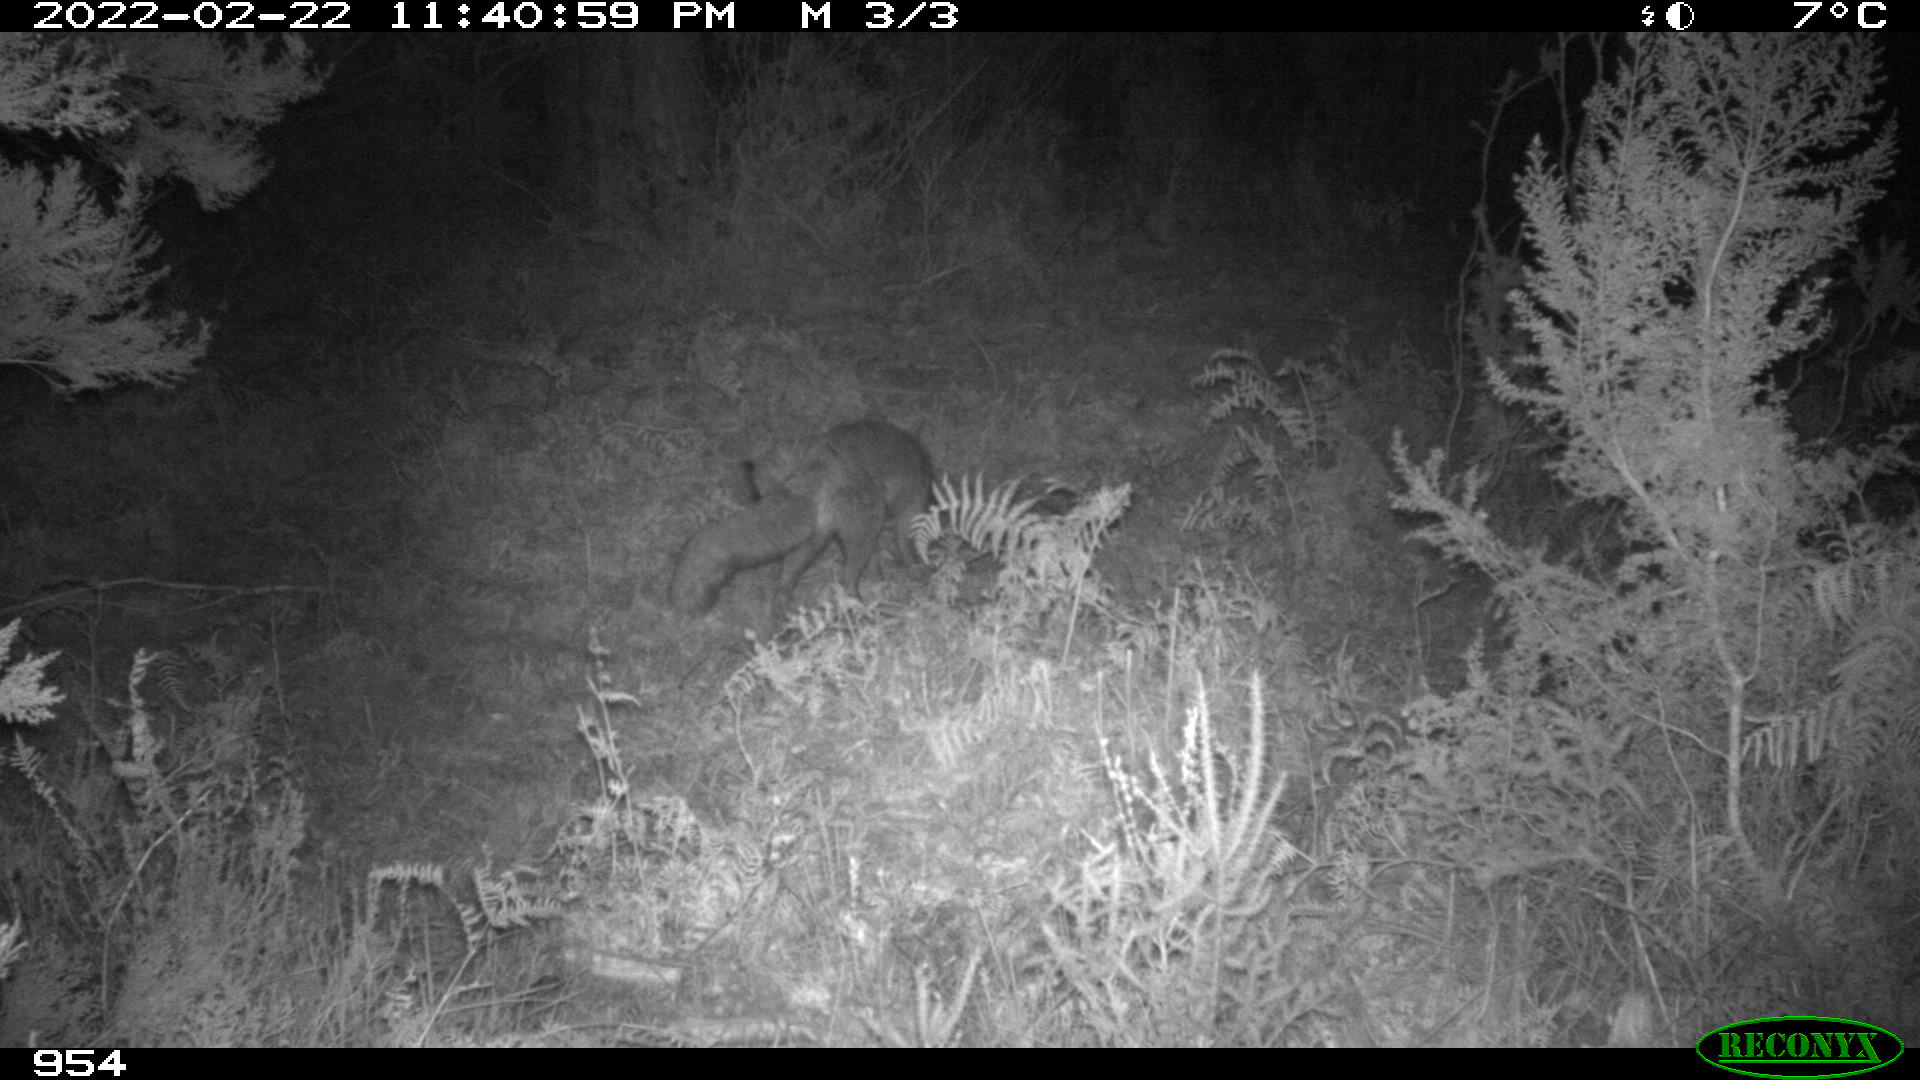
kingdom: Animalia
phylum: Chordata
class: Mammalia
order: Carnivora
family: Canidae
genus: Vulpes
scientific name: Vulpes vulpes
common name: Red fox
